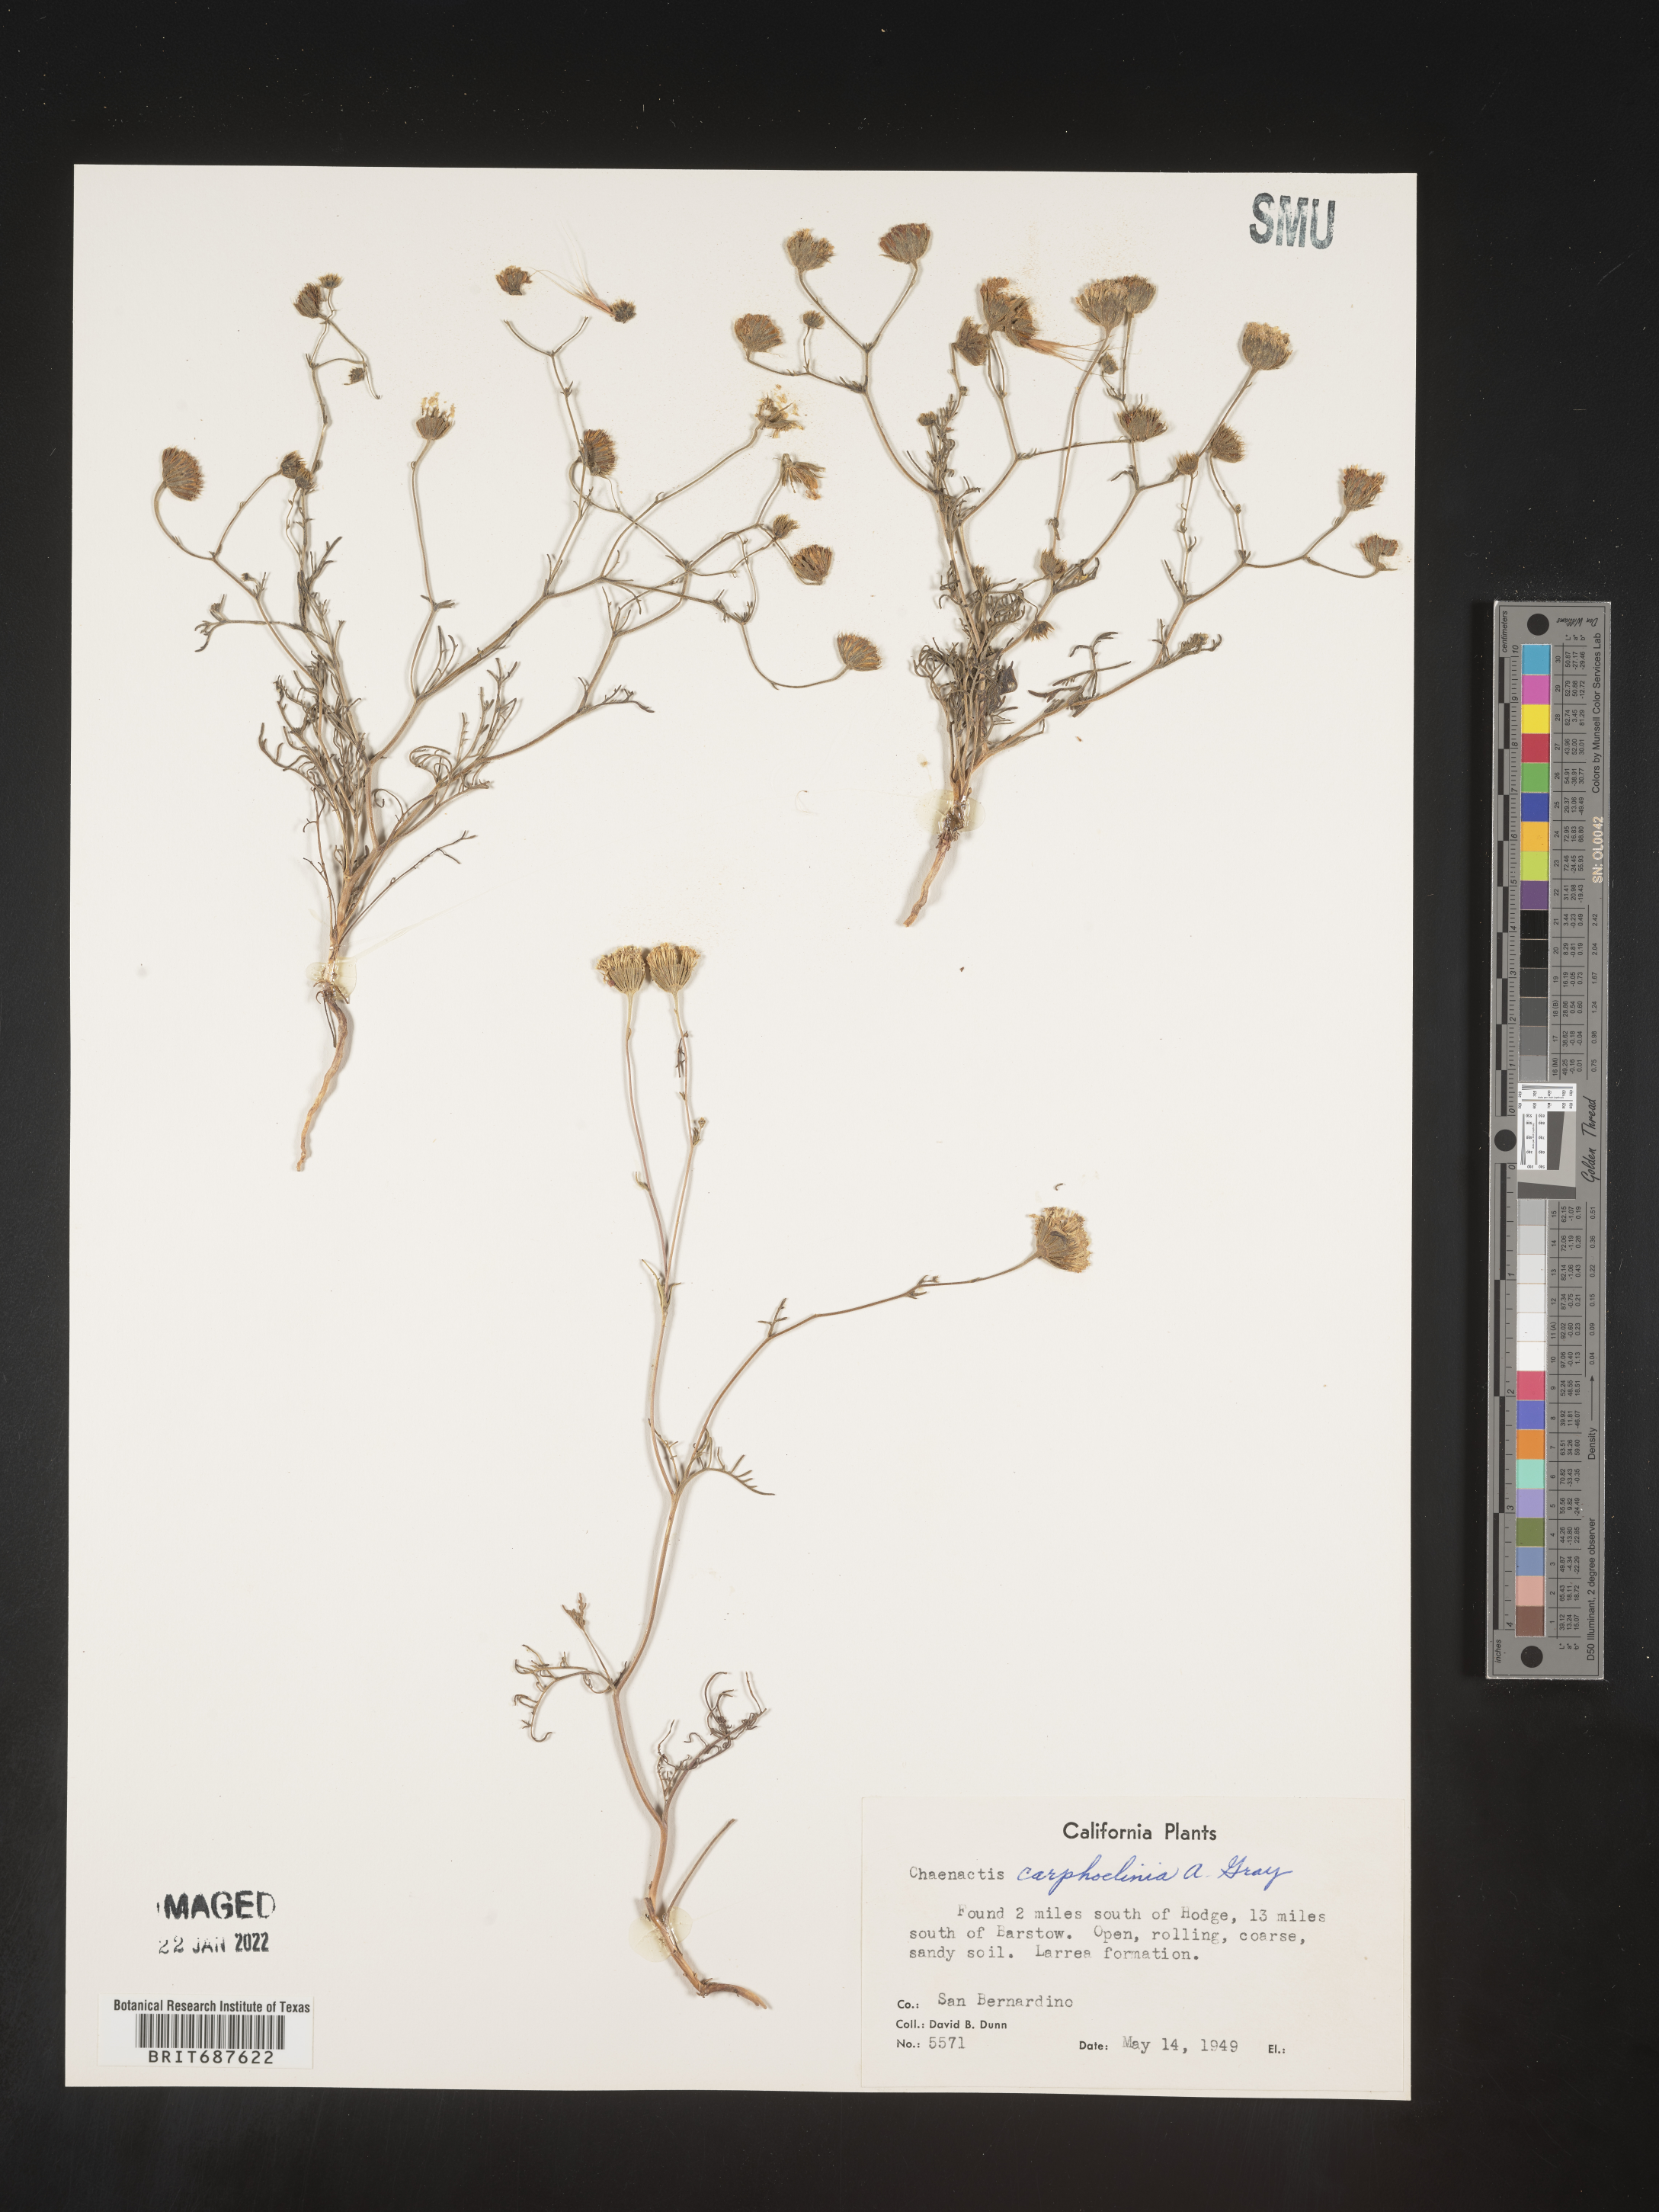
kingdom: Plantae
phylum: Tracheophyta
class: Magnoliopsida
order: Asterales
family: Asteraceae
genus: Chaenactis
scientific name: Chaenactis carphoclinia
